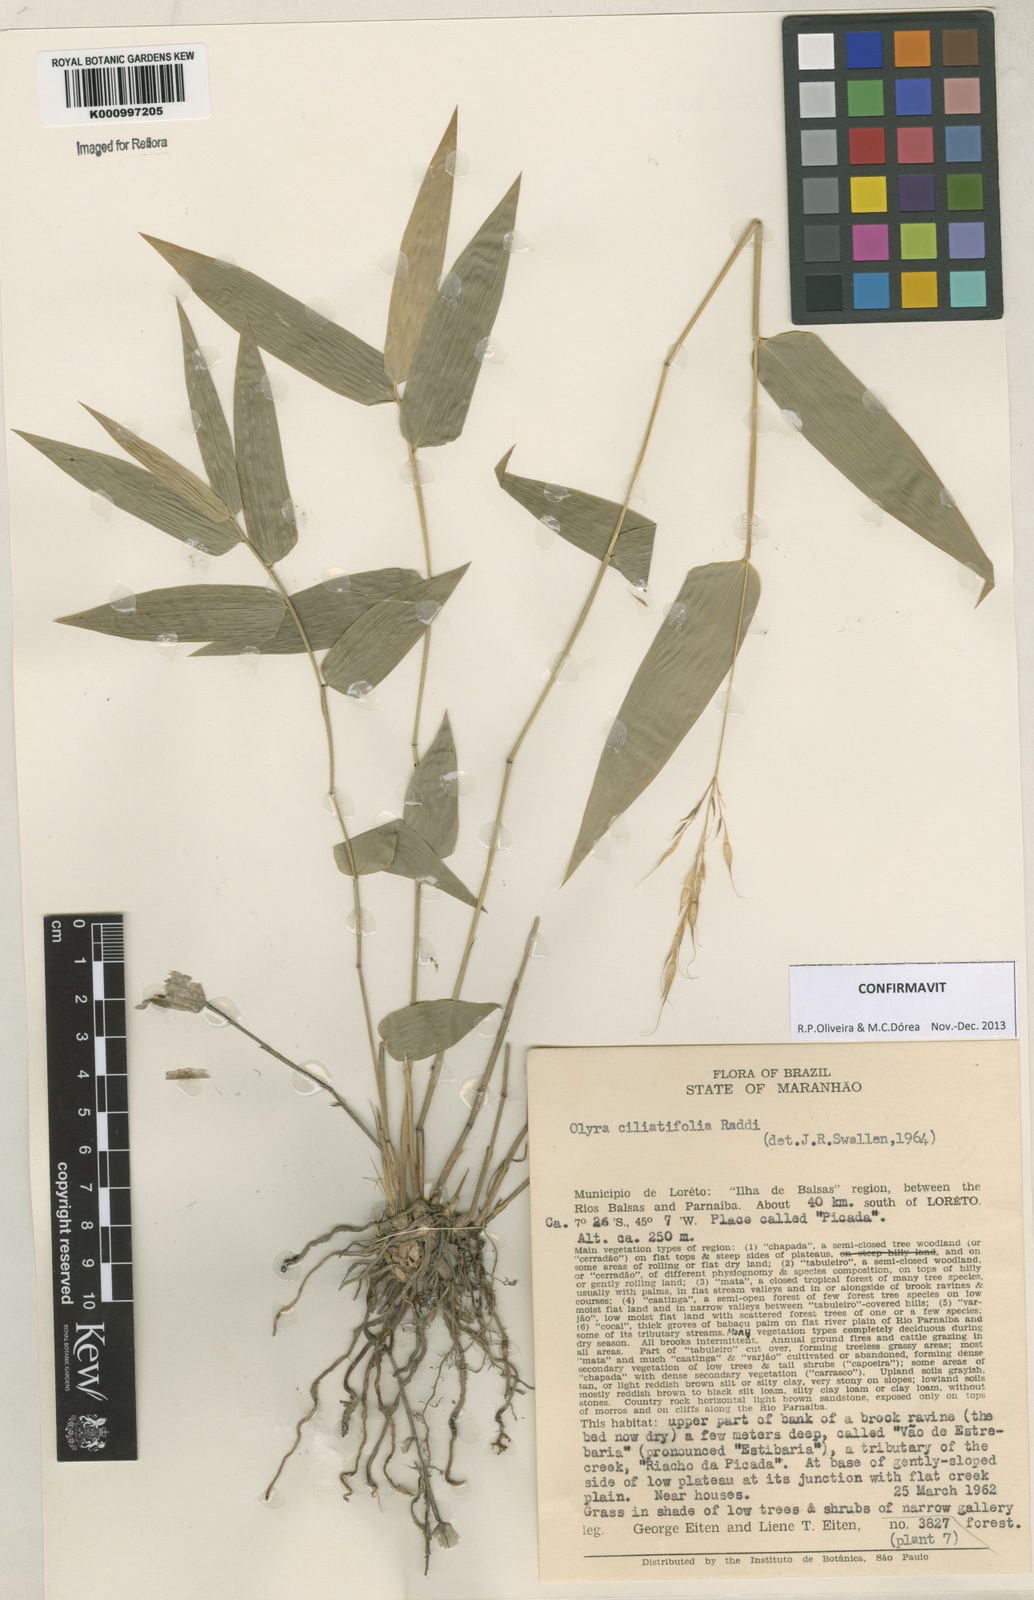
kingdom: Plantae
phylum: Tracheophyta
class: Liliopsida
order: Poales
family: Poaceae
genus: Olyra
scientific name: Olyra ciliatifolia
